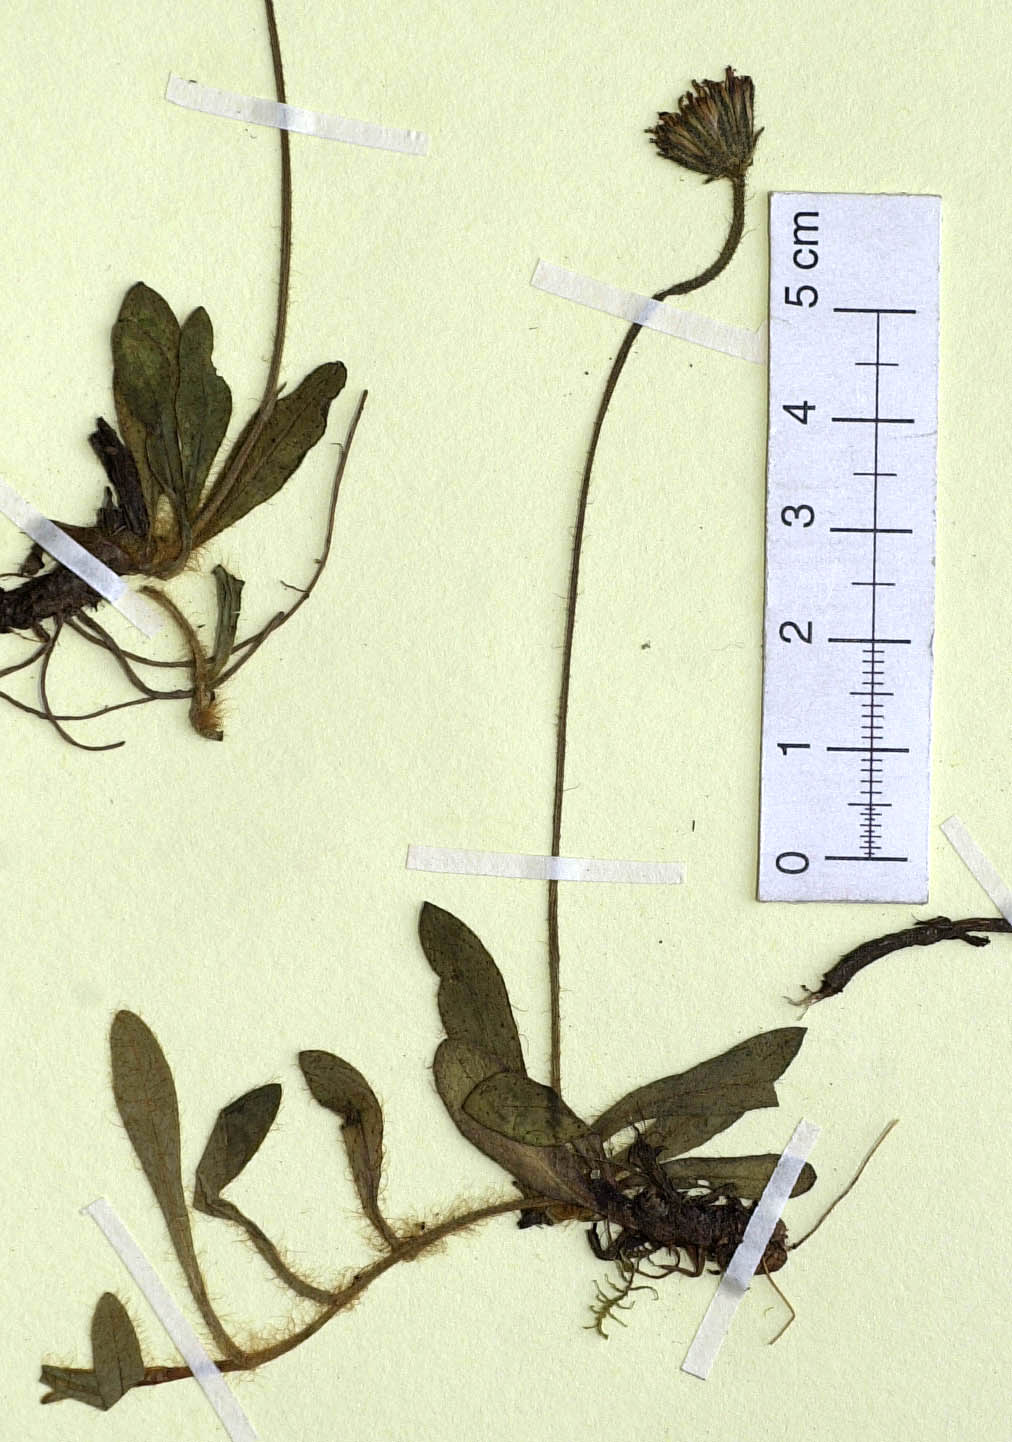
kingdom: Plantae
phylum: Tracheophyta
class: Magnoliopsida
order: Asterales
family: Asteraceae
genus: Pilosella
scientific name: Pilosella peteriana
